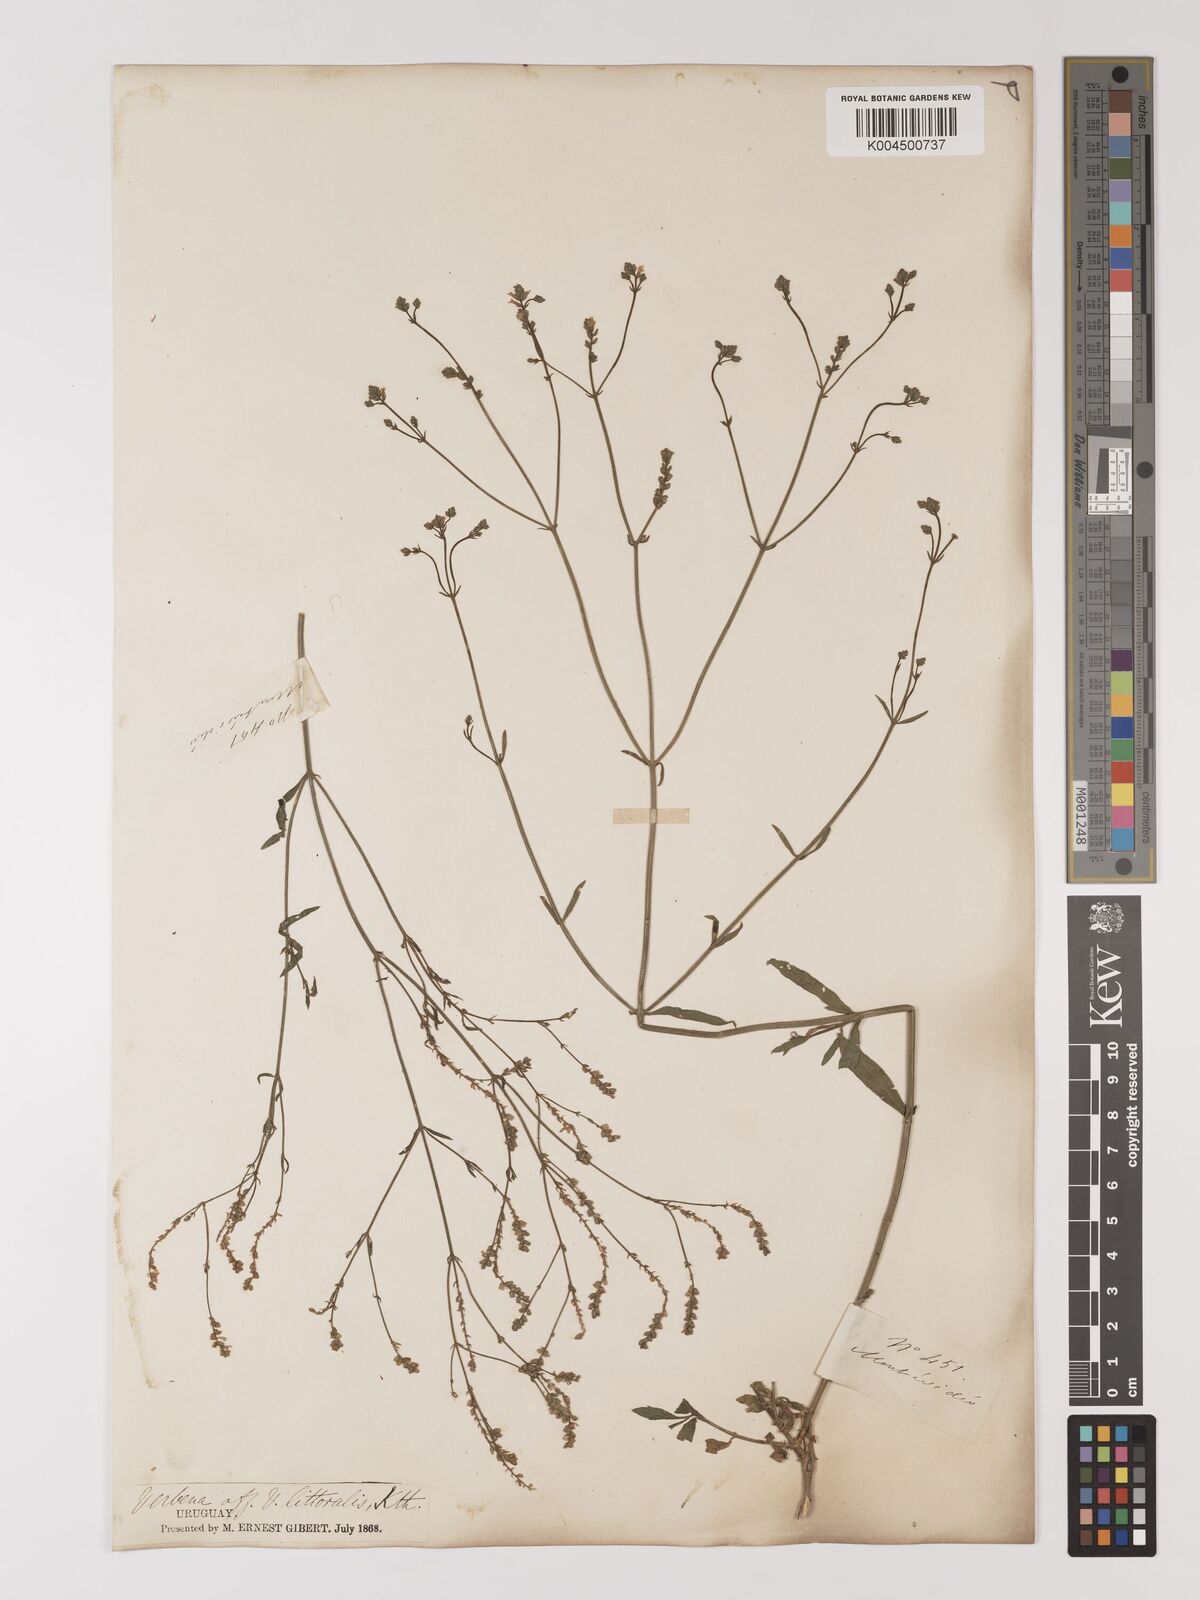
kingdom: Plantae
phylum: Tracheophyta
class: Magnoliopsida
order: Lamiales
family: Verbenaceae
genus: Verbena
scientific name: Verbena litoralis
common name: Seashore vervain
